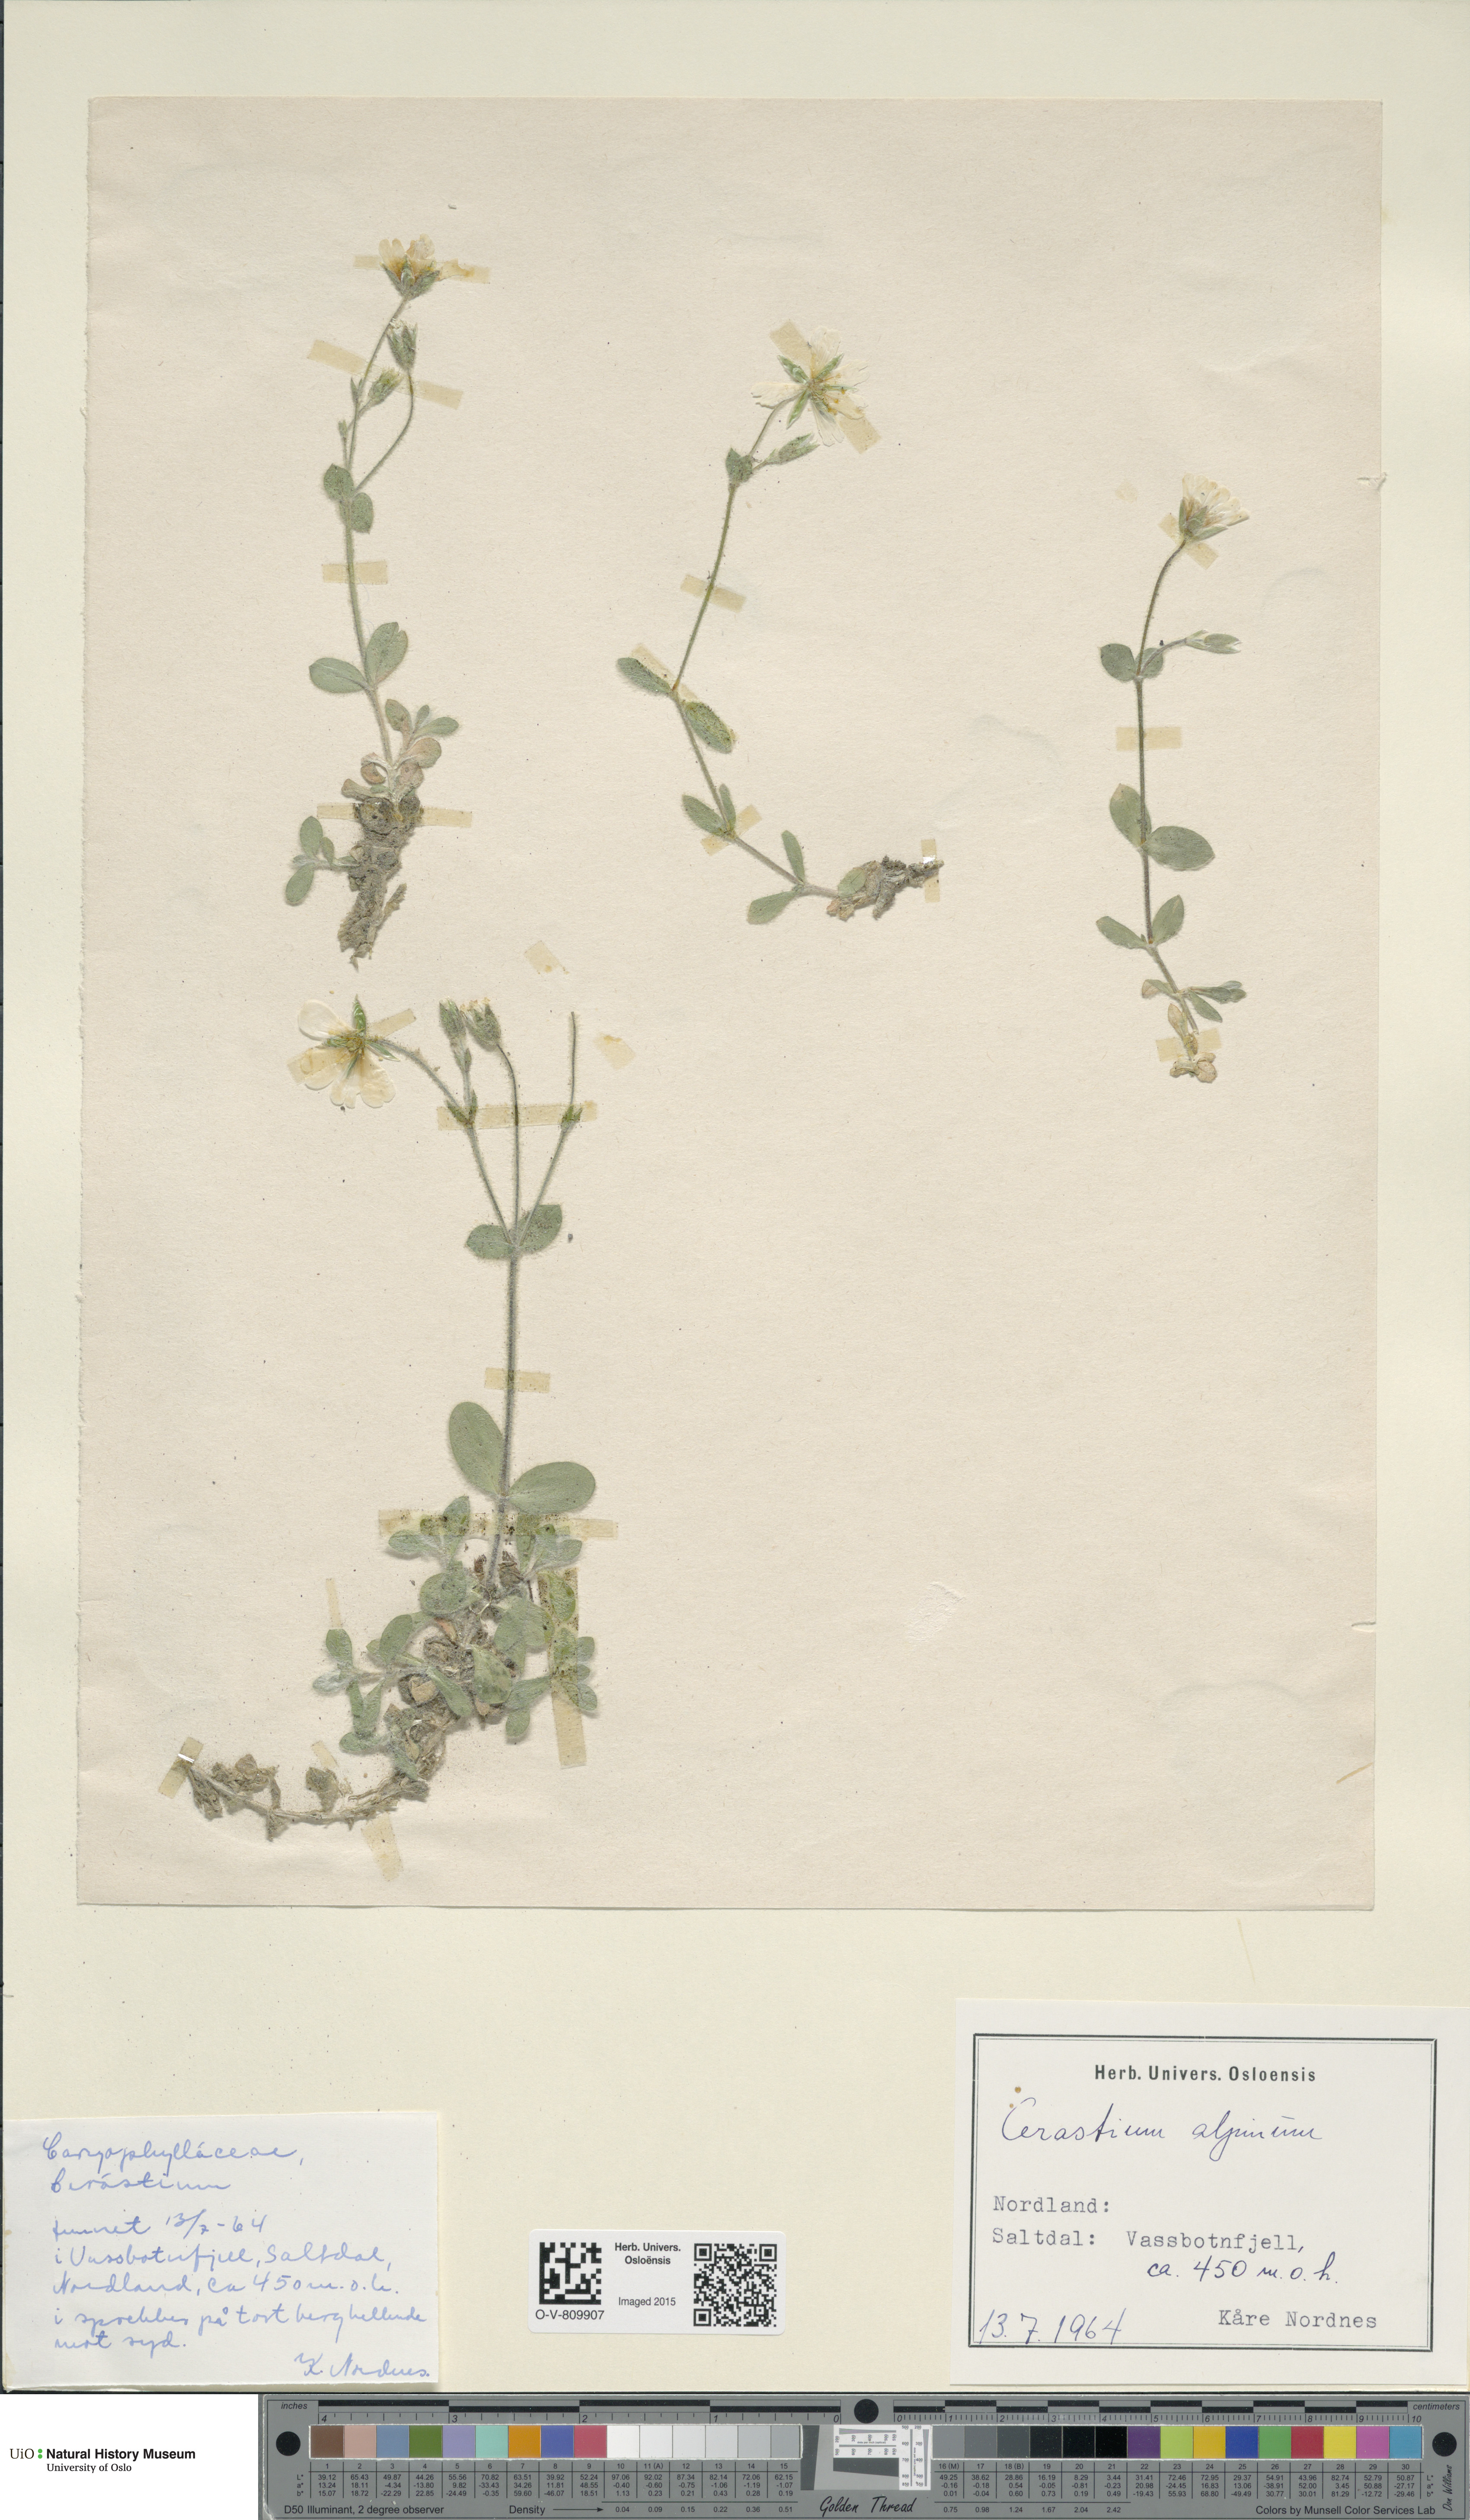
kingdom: Plantae
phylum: Tracheophyta
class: Magnoliopsida
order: Caryophyllales
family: Caryophyllaceae
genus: Cerastium
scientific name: Cerastium alpinum
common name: Alpine mouse-ear
